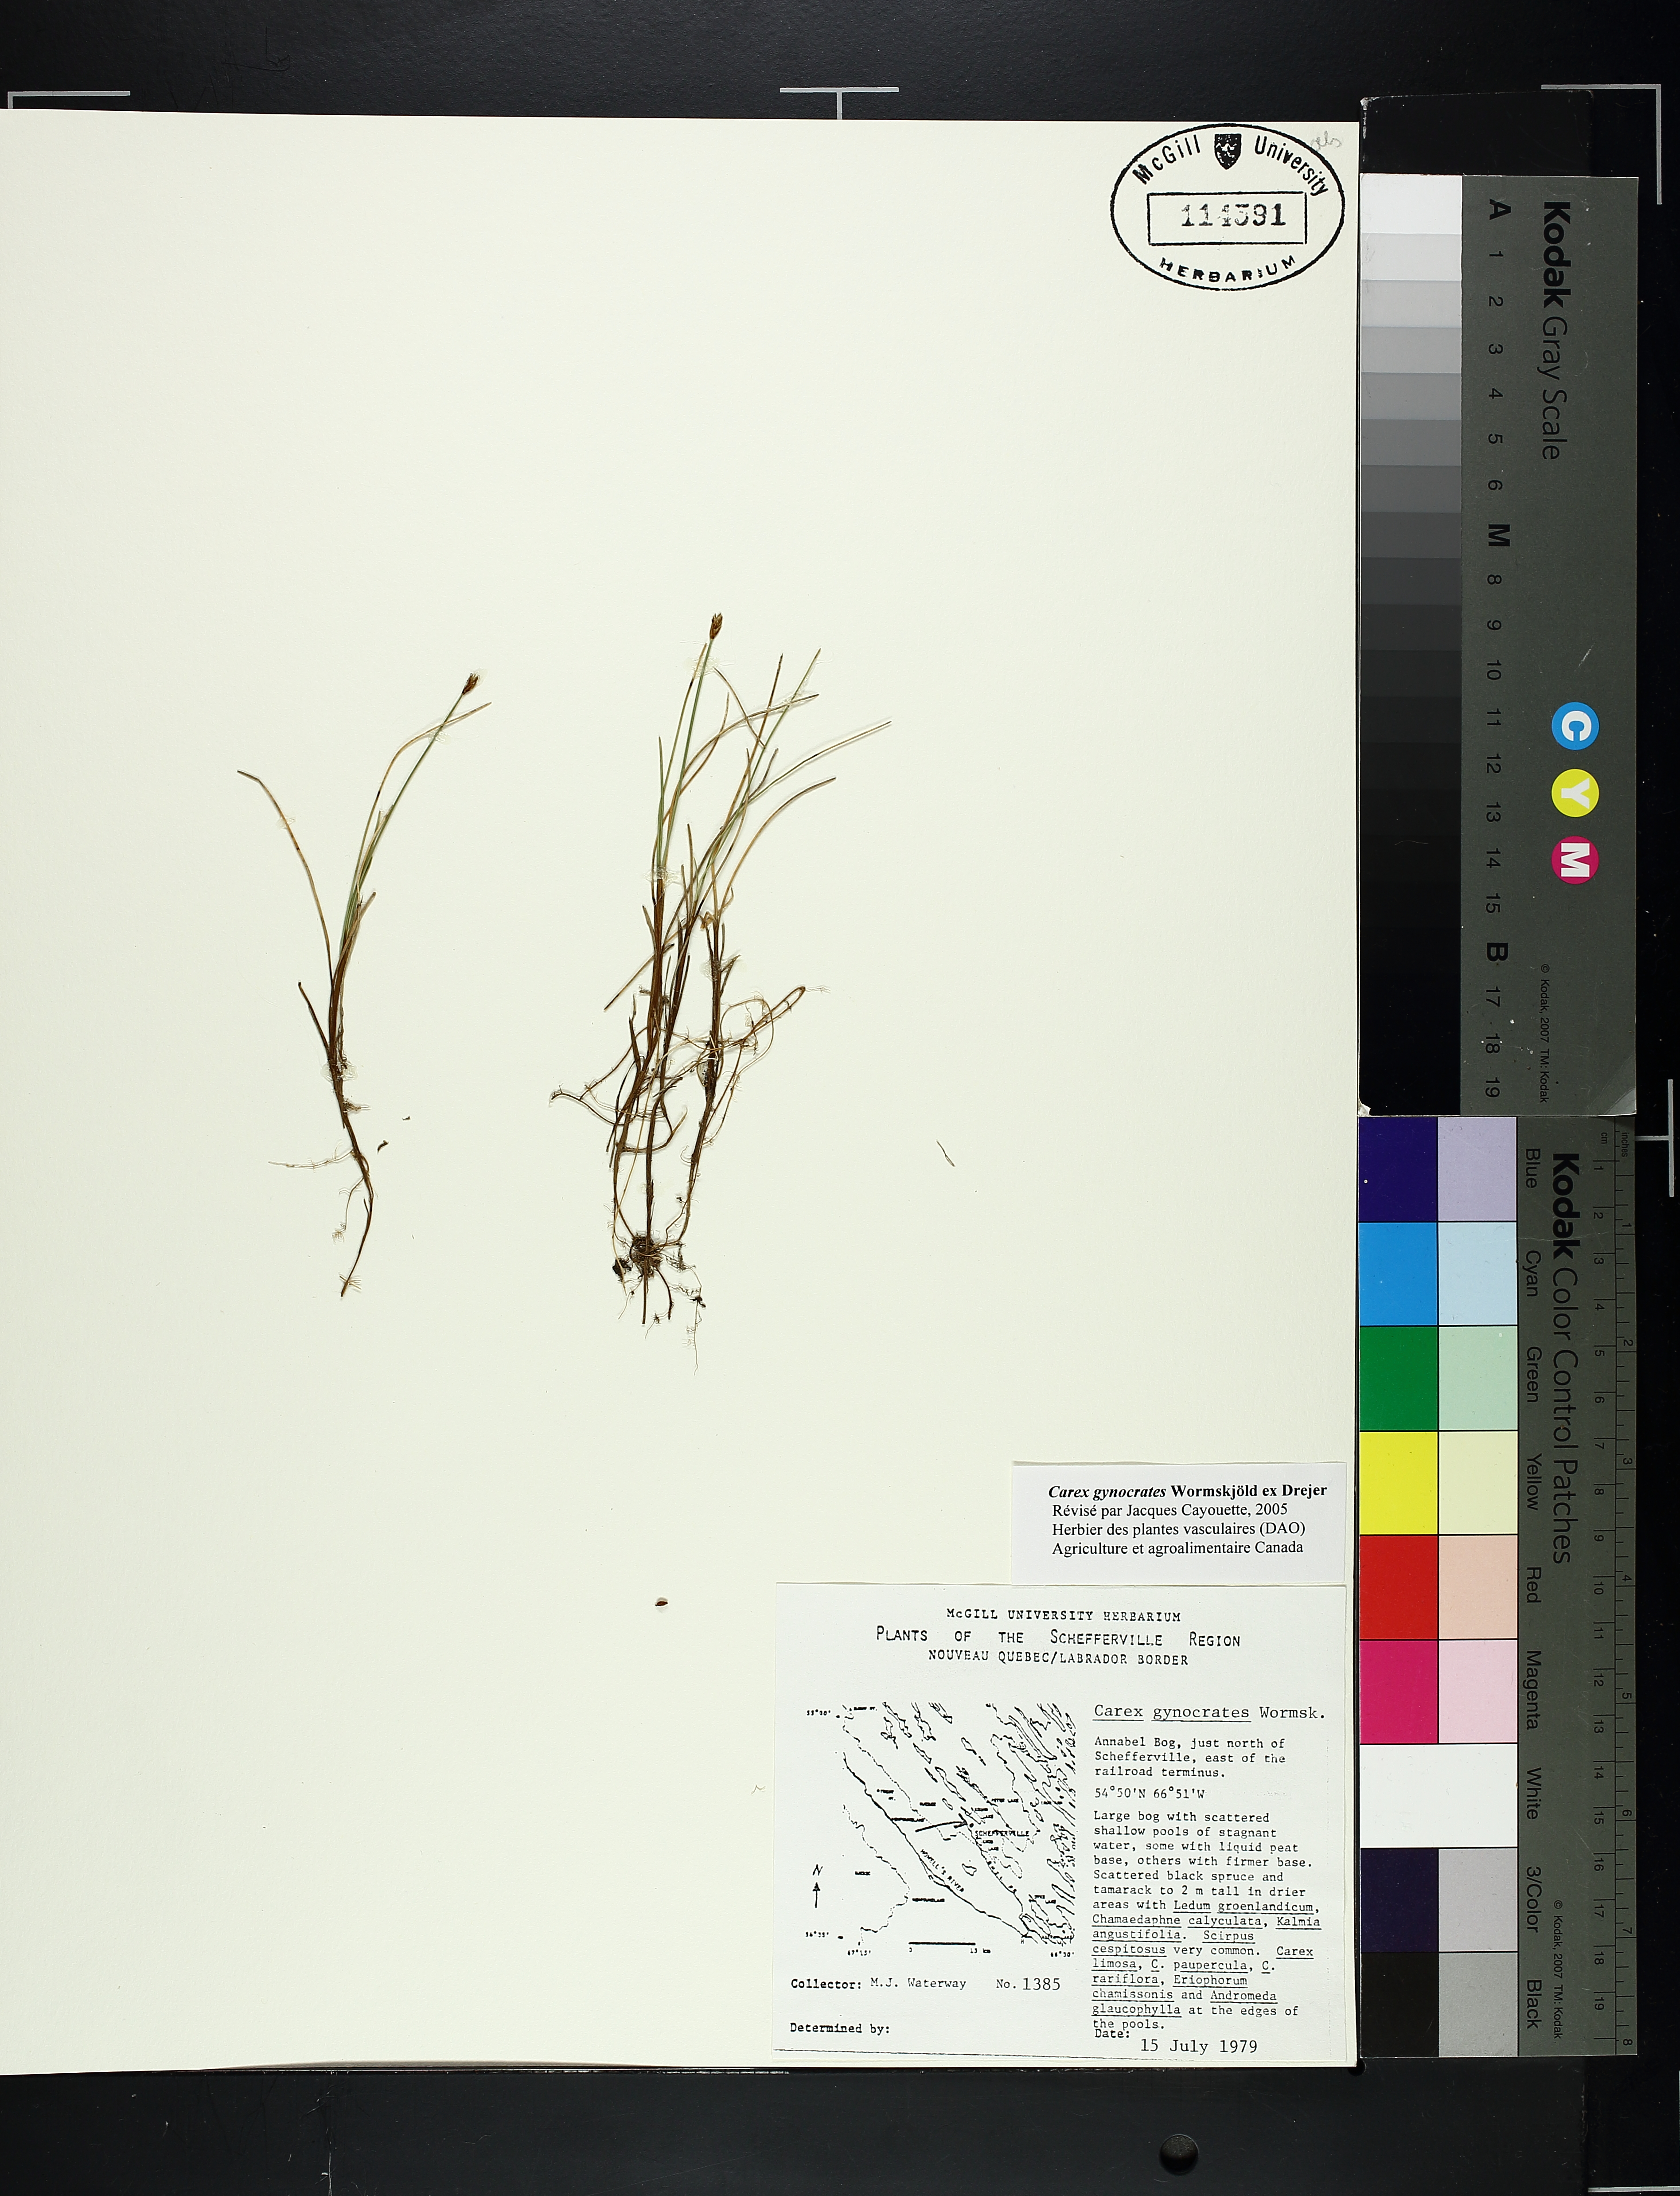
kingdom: Plantae
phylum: Tracheophyta
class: Liliopsida
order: Poales
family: Cyperaceae
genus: Carex
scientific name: Carex gynocrates
